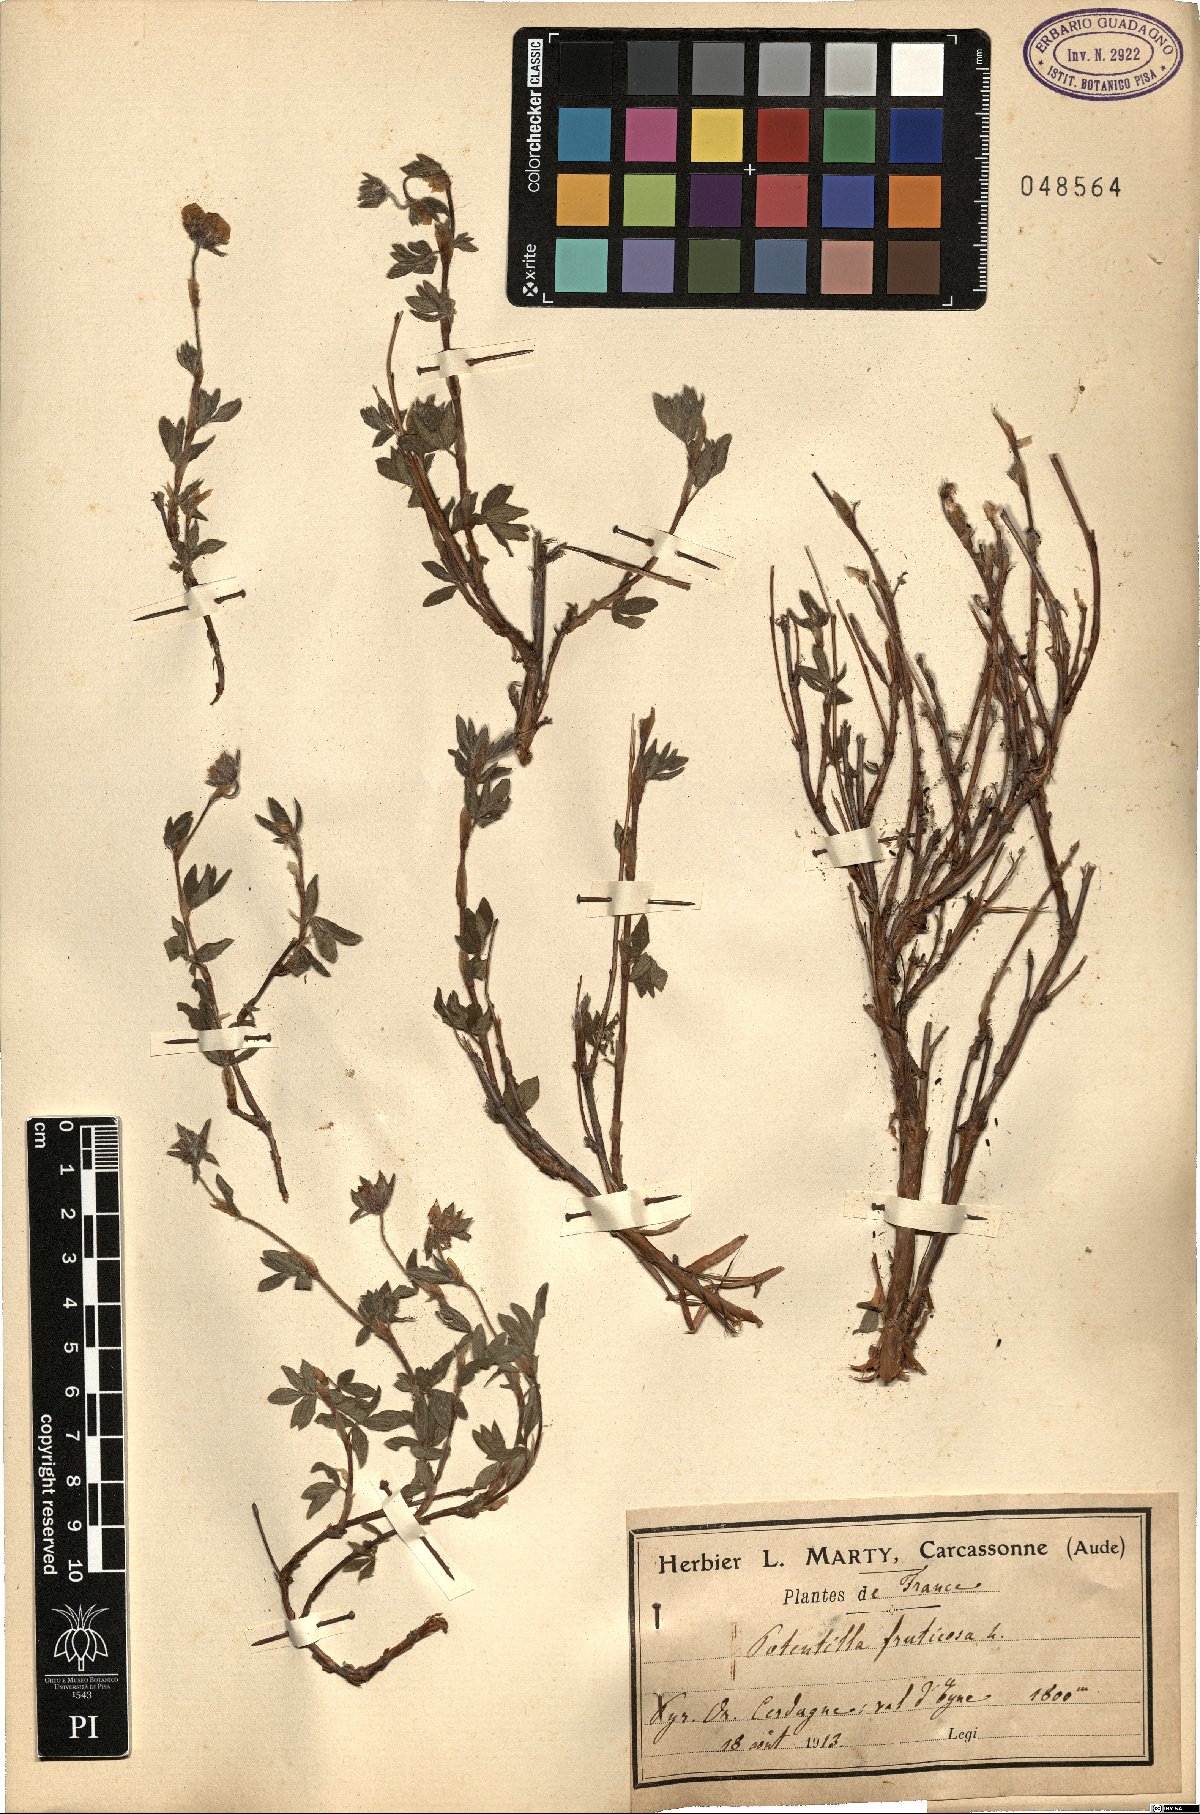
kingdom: Plantae
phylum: Tracheophyta
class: Magnoliopsida
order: Rosales
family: Rosaceae
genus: Dasiphora
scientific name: Dasiphora fruticosa
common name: Shrubby cinquefoil
